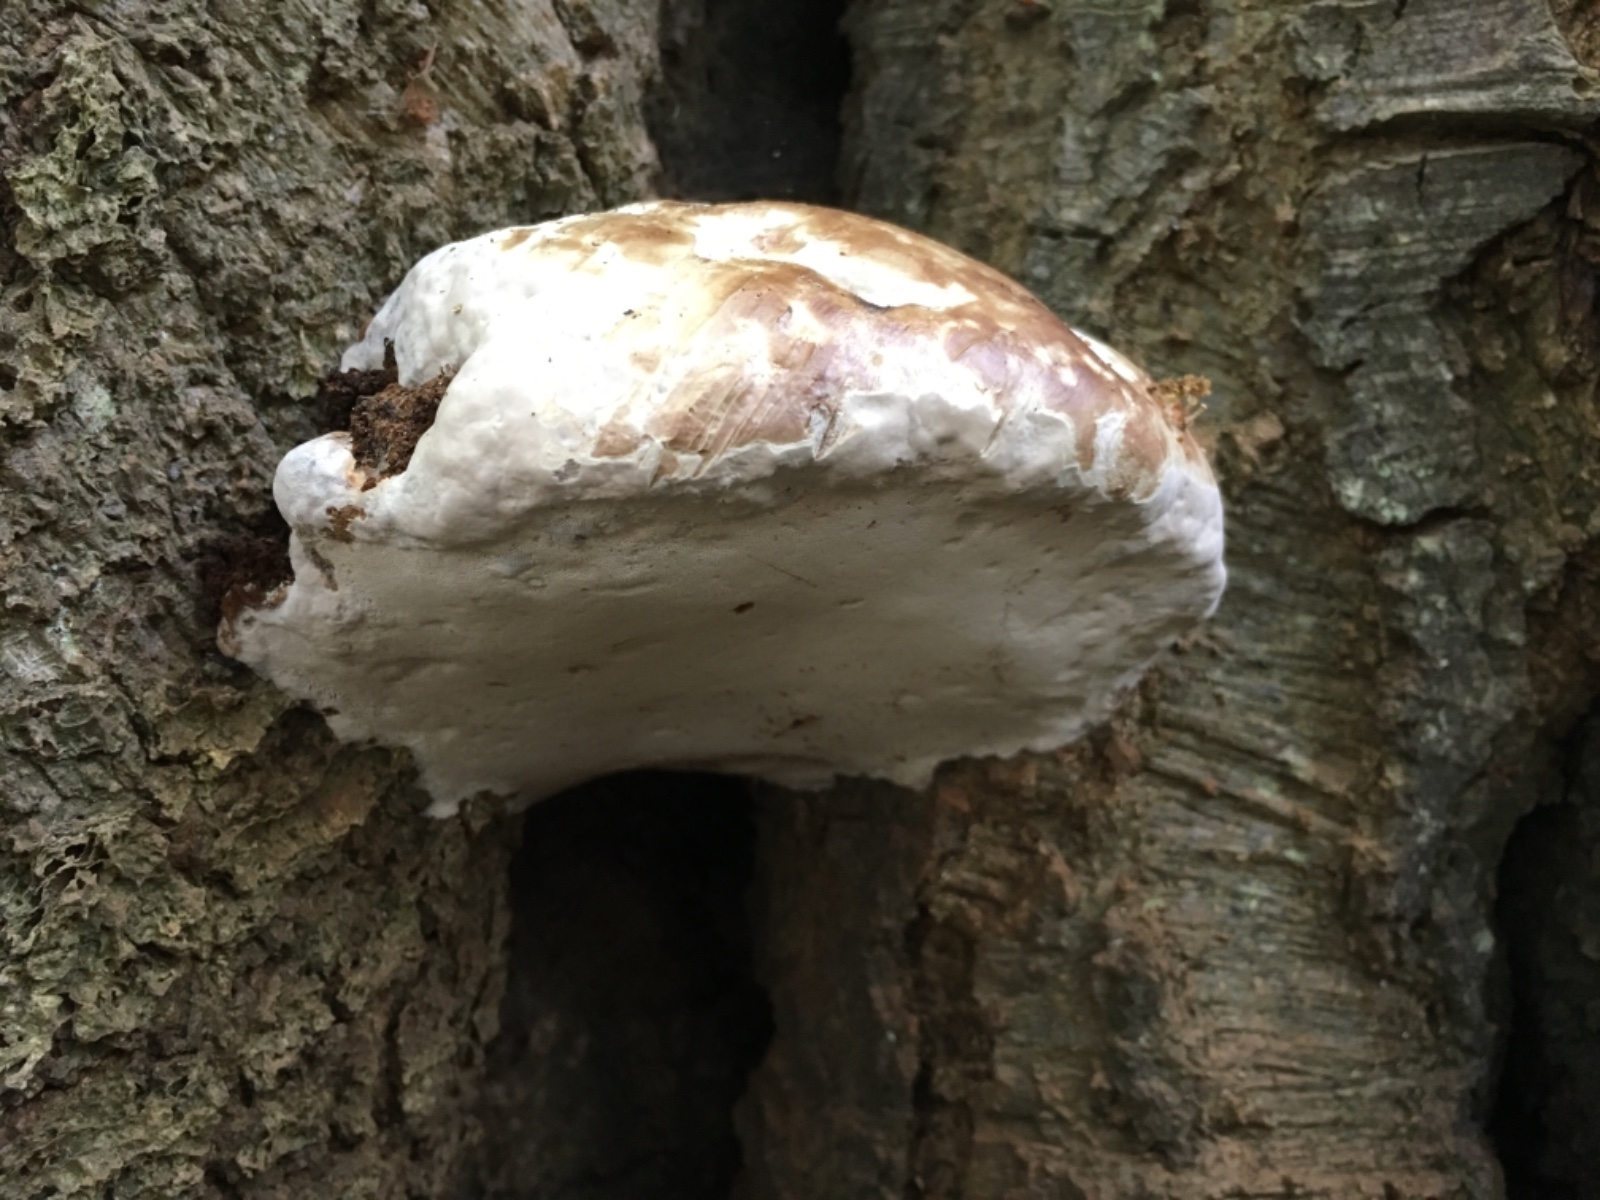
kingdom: Fungi
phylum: Basidiomycota
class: Agaricomycetes
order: Polyporales
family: Polyporaceae
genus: Fomes
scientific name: Fomes fomentarius
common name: tøndersvamp
